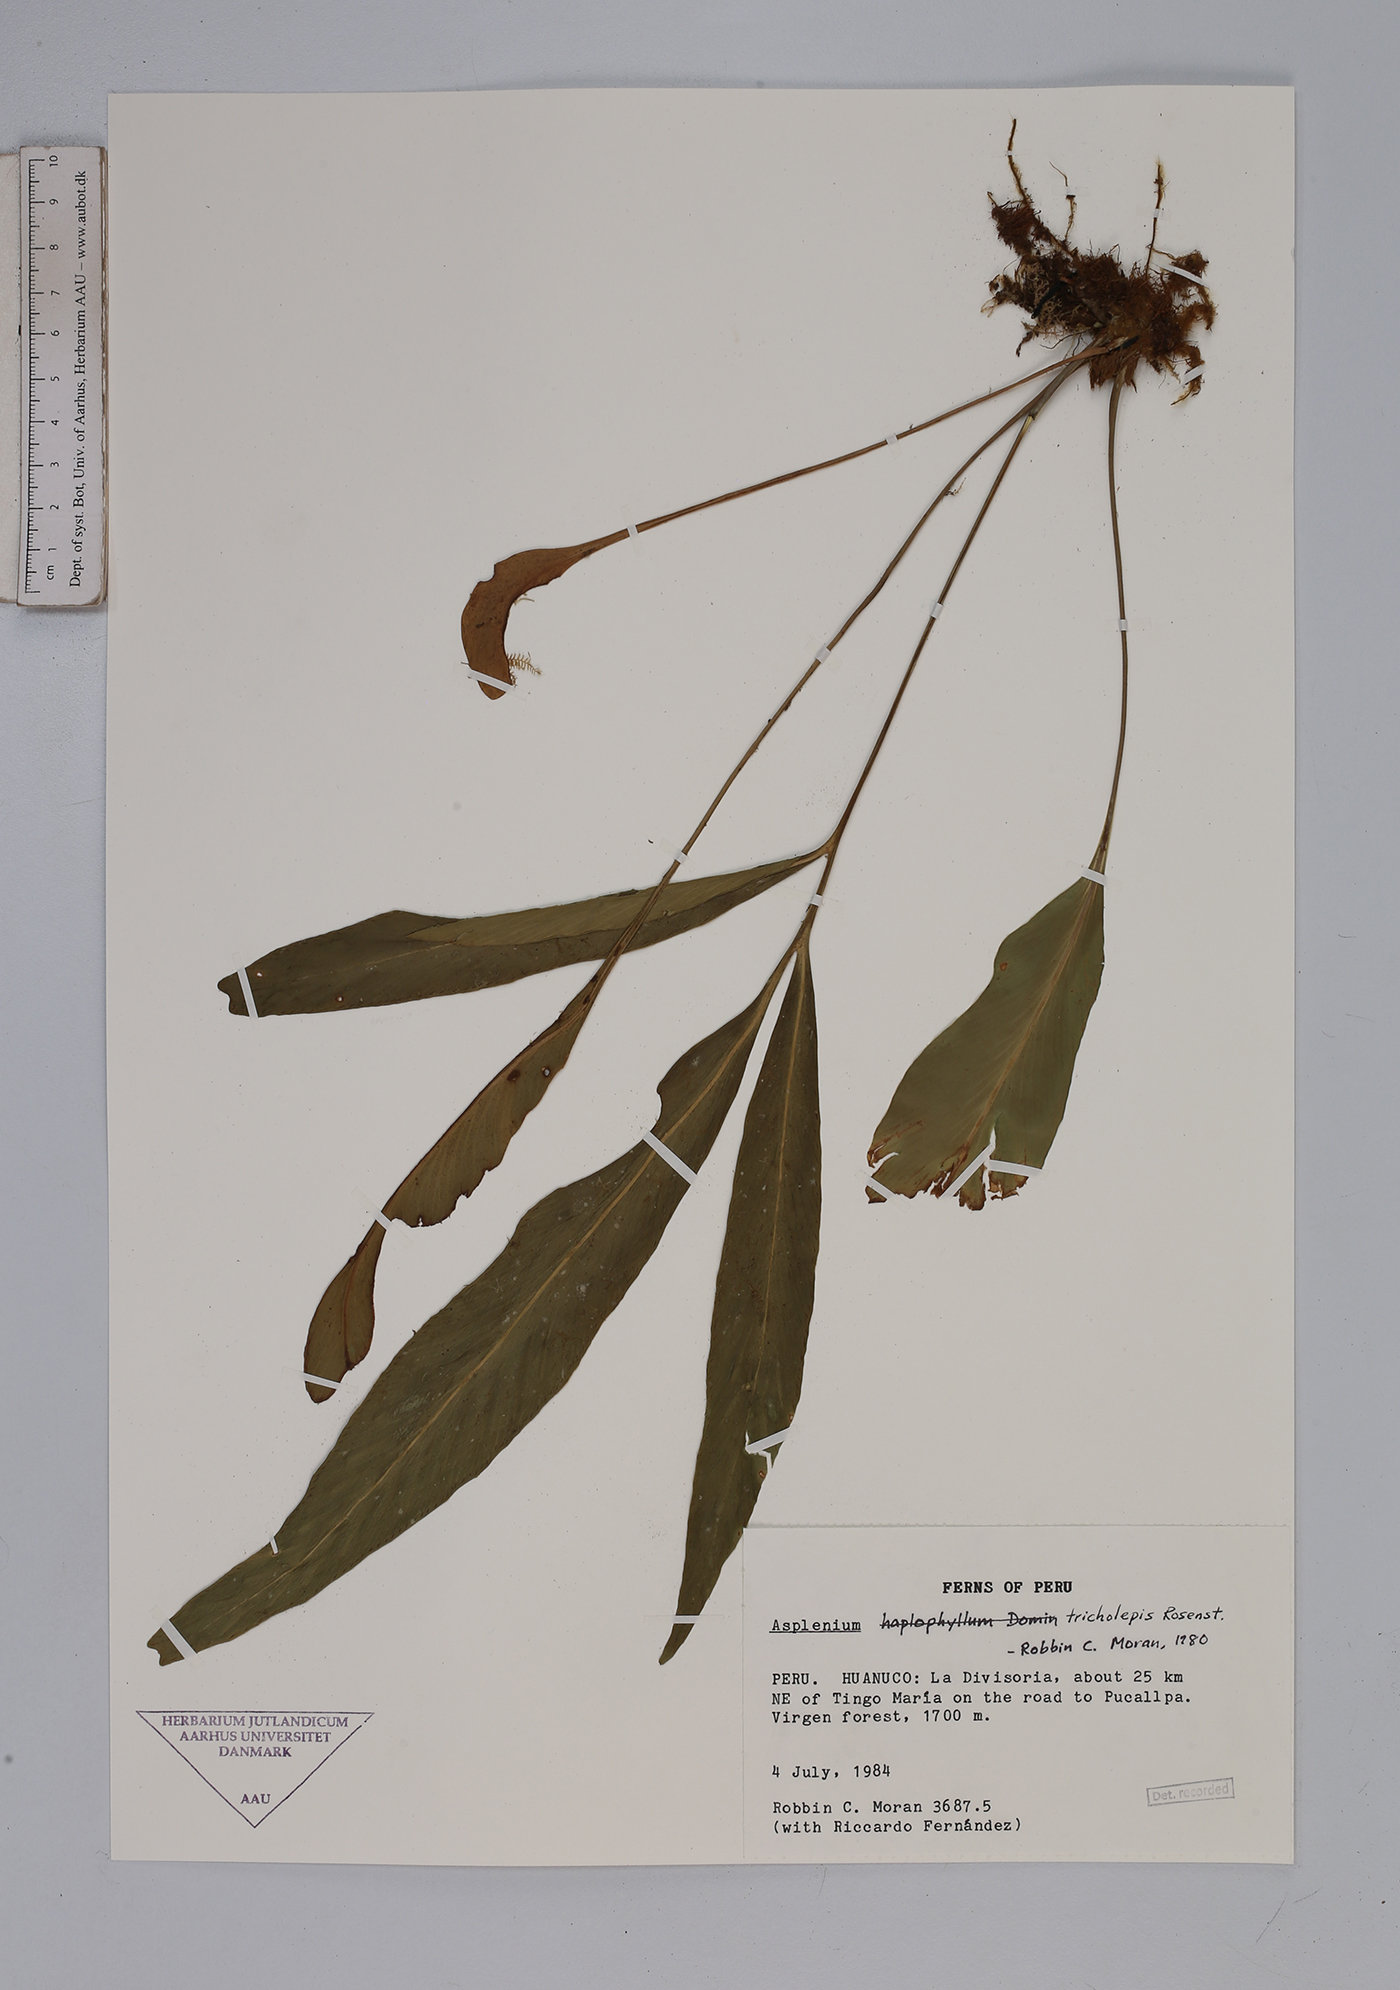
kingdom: Plantae
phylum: Tracheophyta
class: Polypodiopsida
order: Polypodiales
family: Aspleniaceae
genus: Asplenium
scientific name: Asplenium tricholepis
